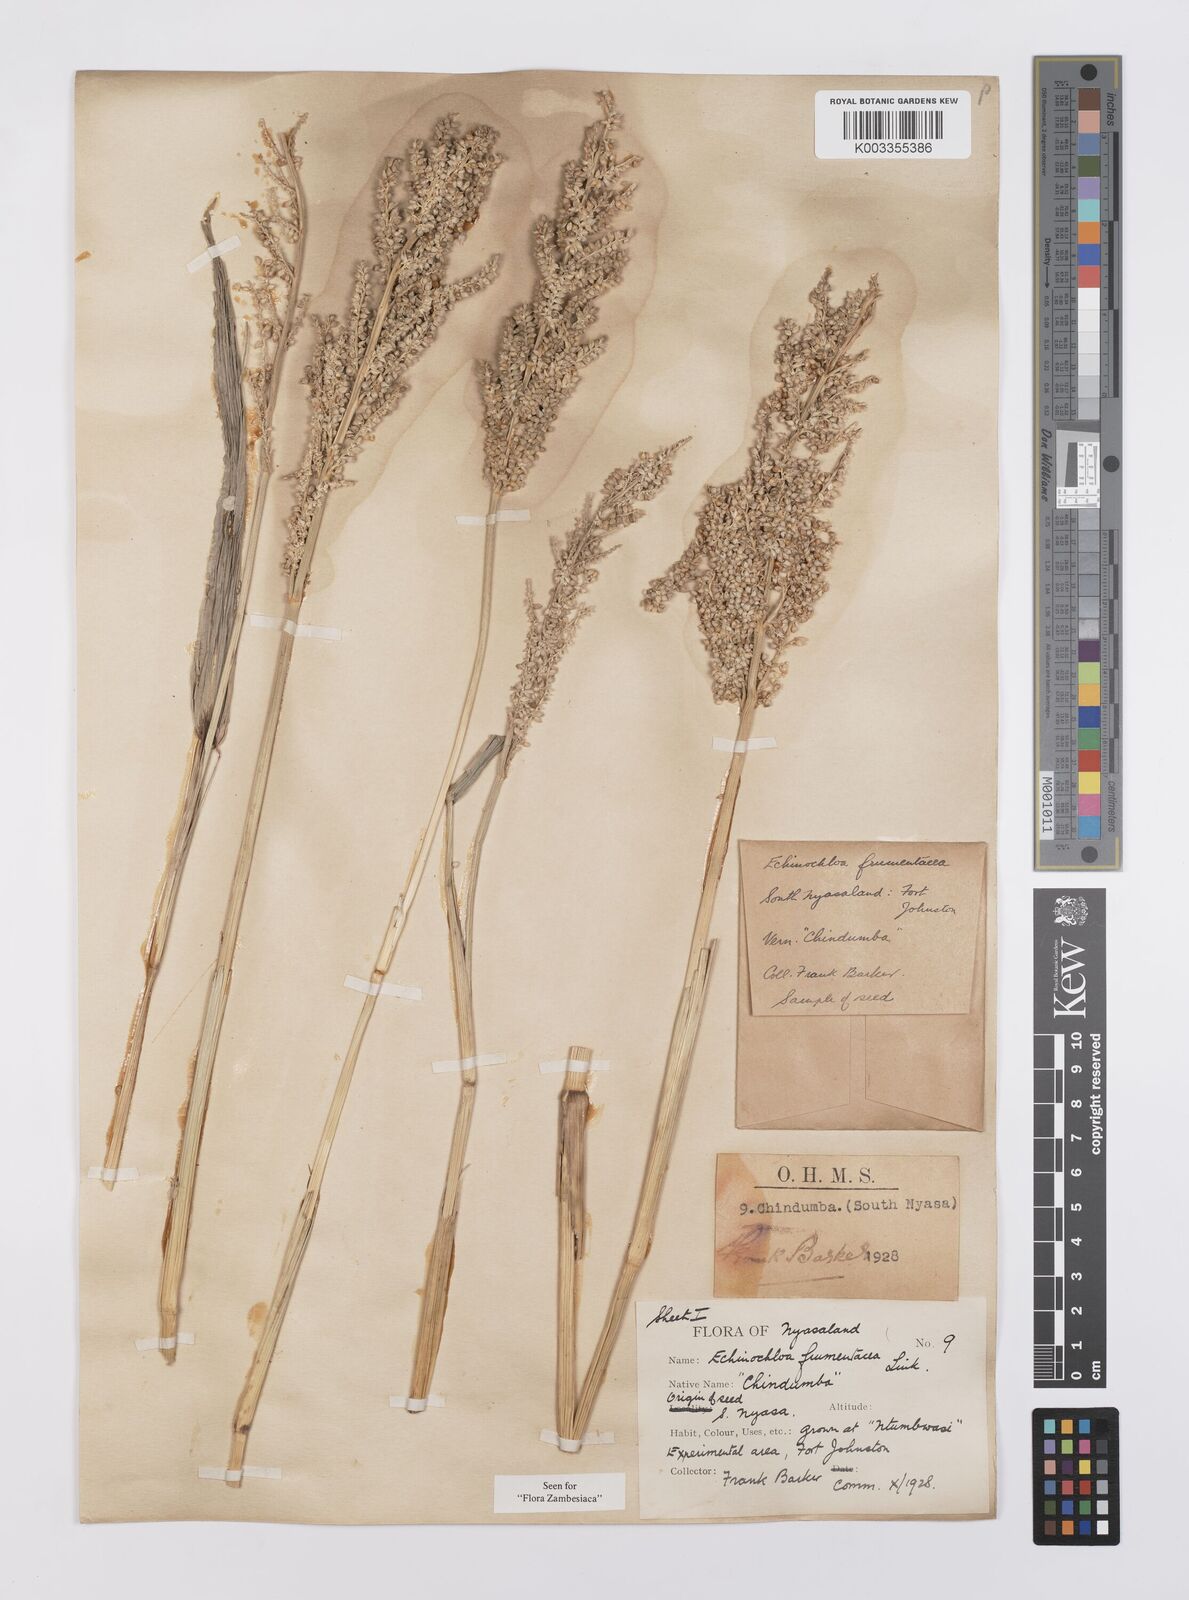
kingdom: Plantae
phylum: Tracheophyta
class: Liliopsida
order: Poales
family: Poaceae
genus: Echinochloa
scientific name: Echinochloa frumentacea
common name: Billion-dollar grass
